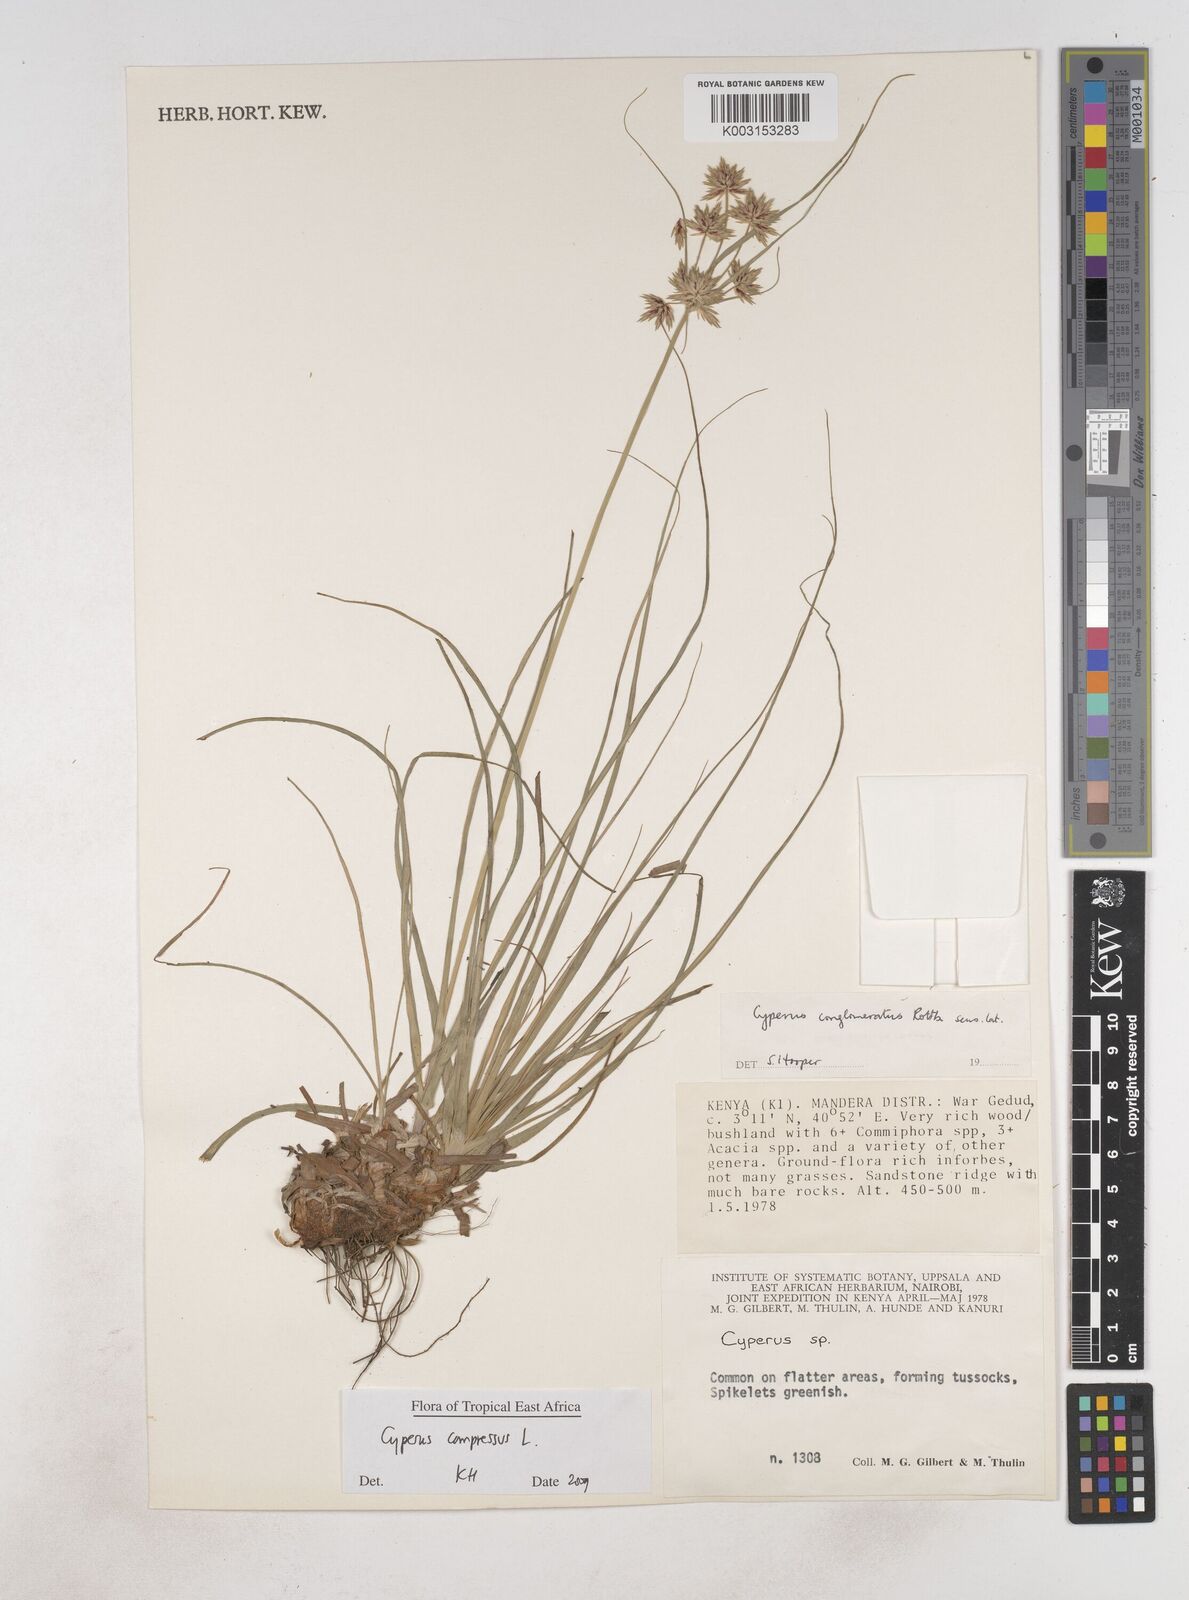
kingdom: Plantae
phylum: Tracheophyta
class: Liliopsida
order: Poales
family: Cyperaceae
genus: Cyperus
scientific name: Cyperus compressus
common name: Poorland flatsedge
